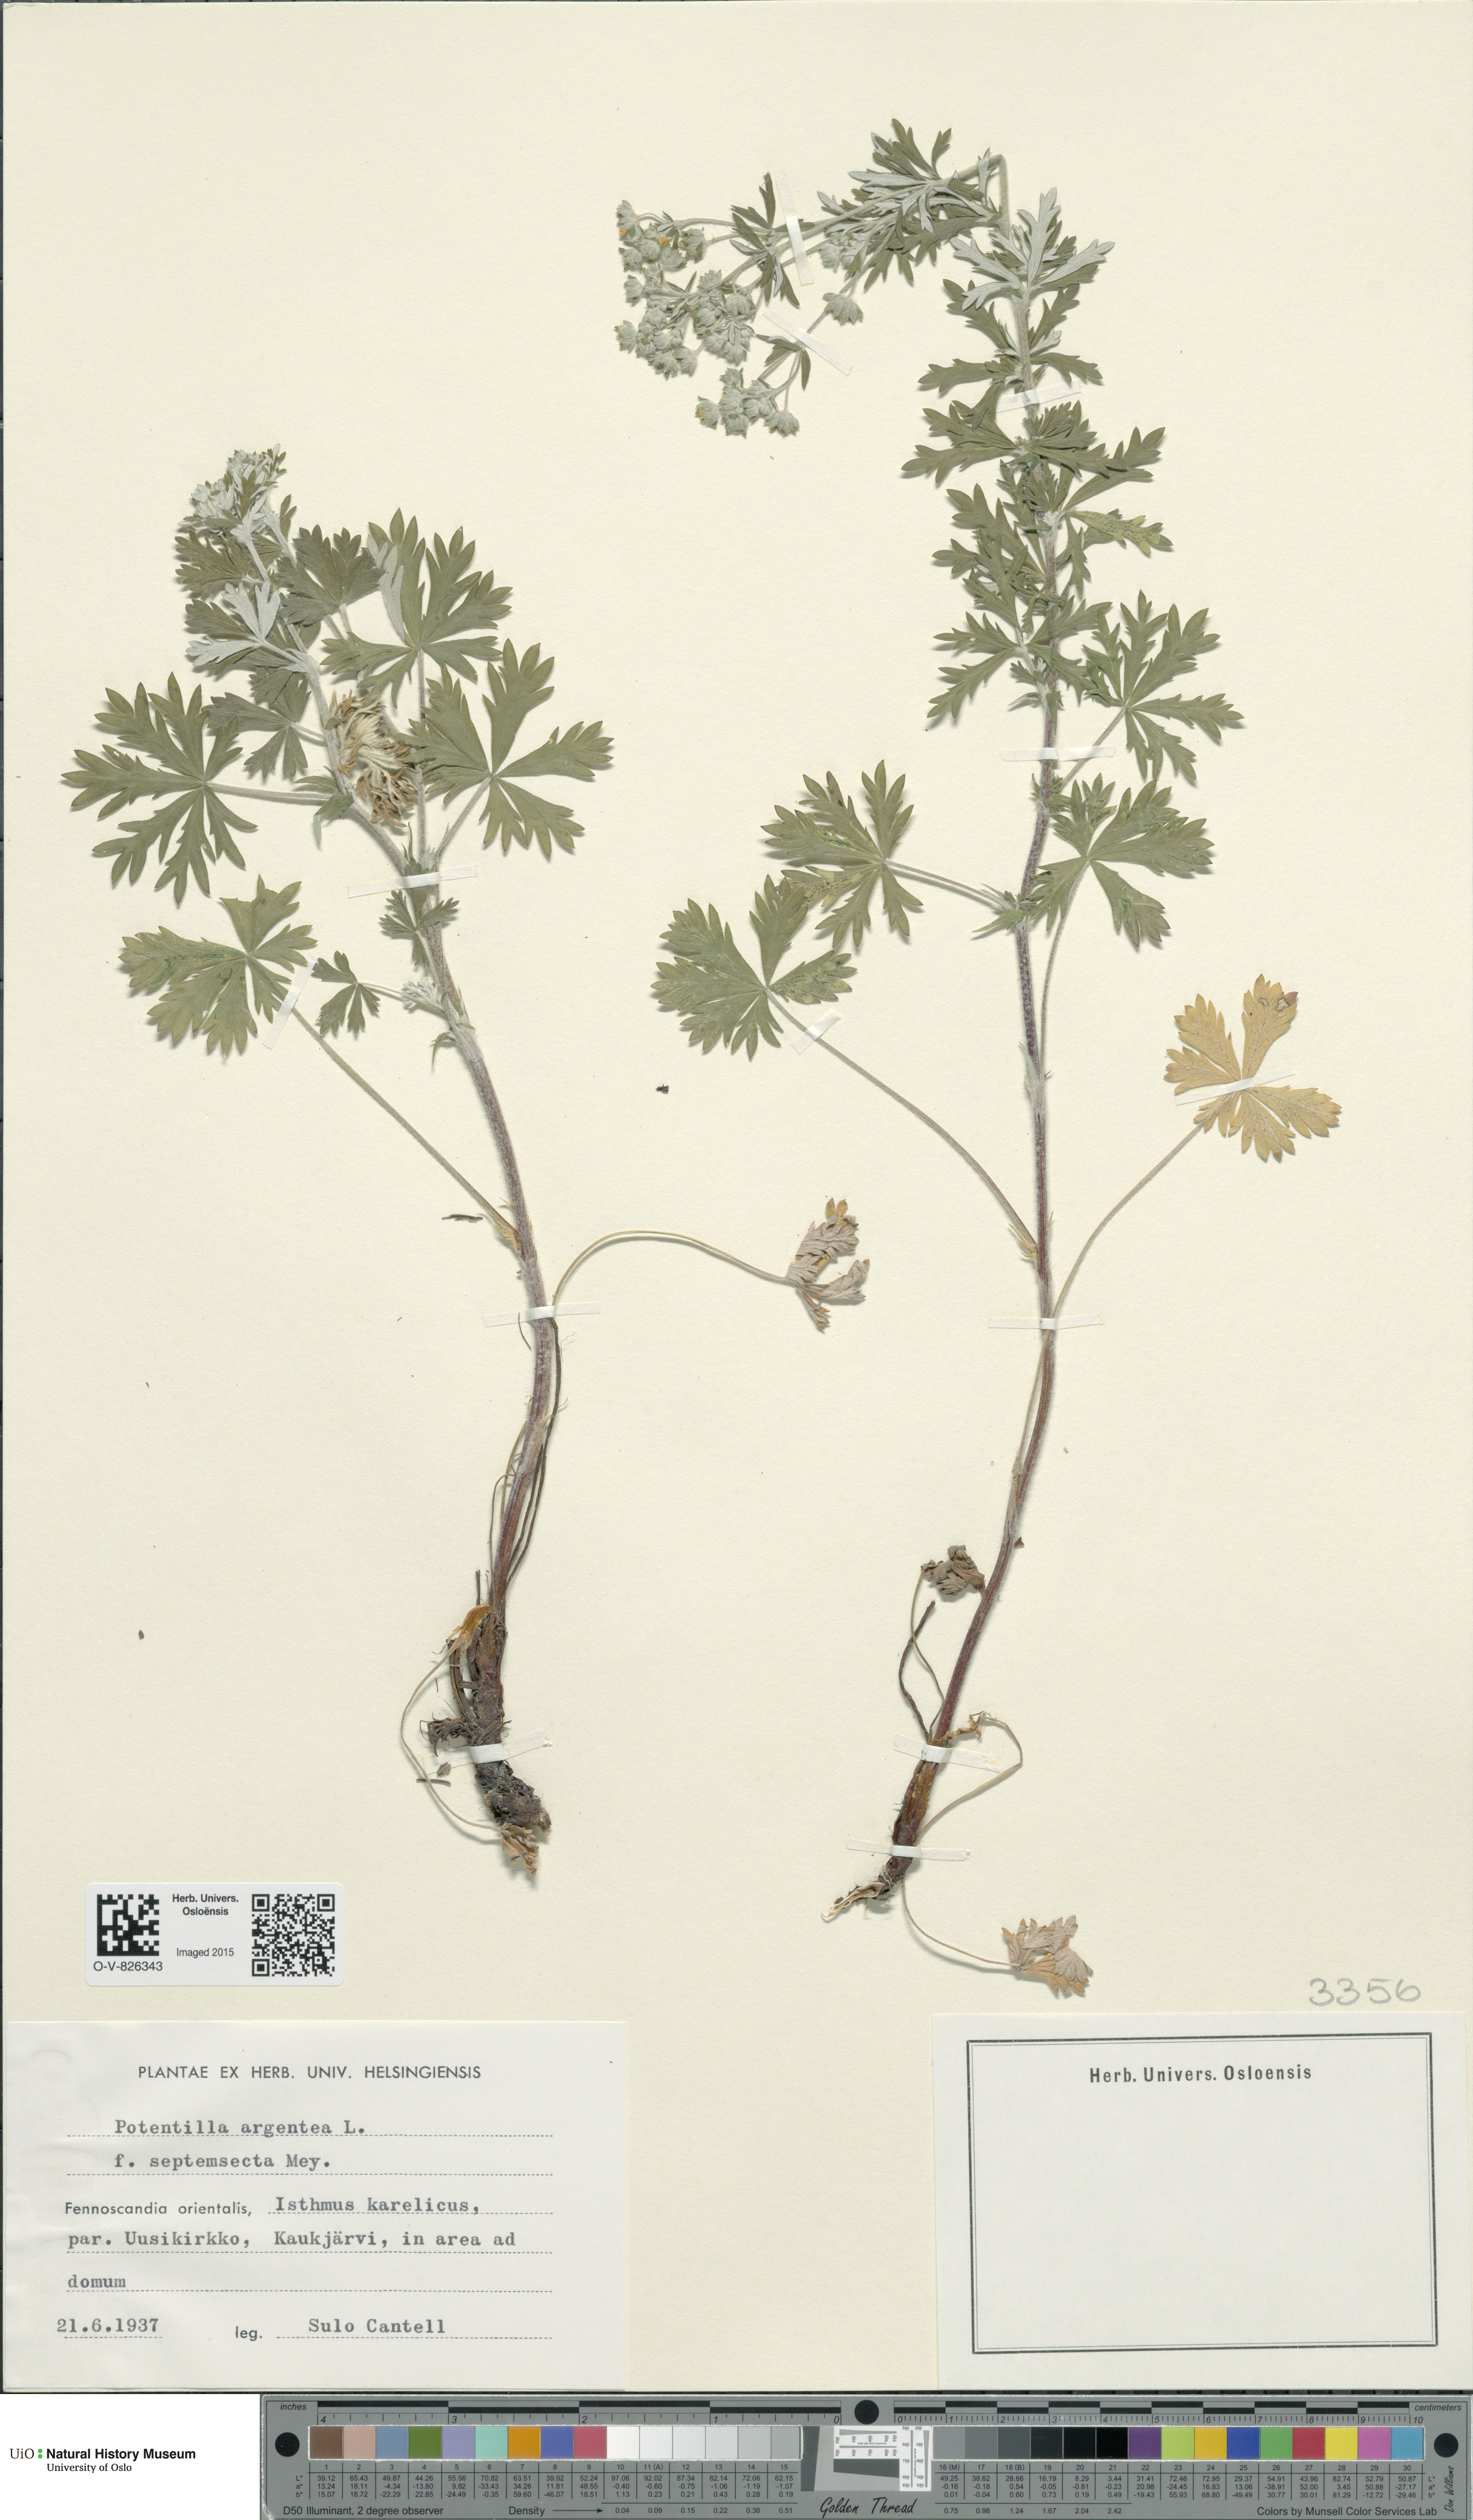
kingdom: Plantae
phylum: Tracheophyta
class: Magnoliopsida
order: Rosales
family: Rosaceae
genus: Potentilla
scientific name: Potentilla argentea
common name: Hoary cinquefoil
